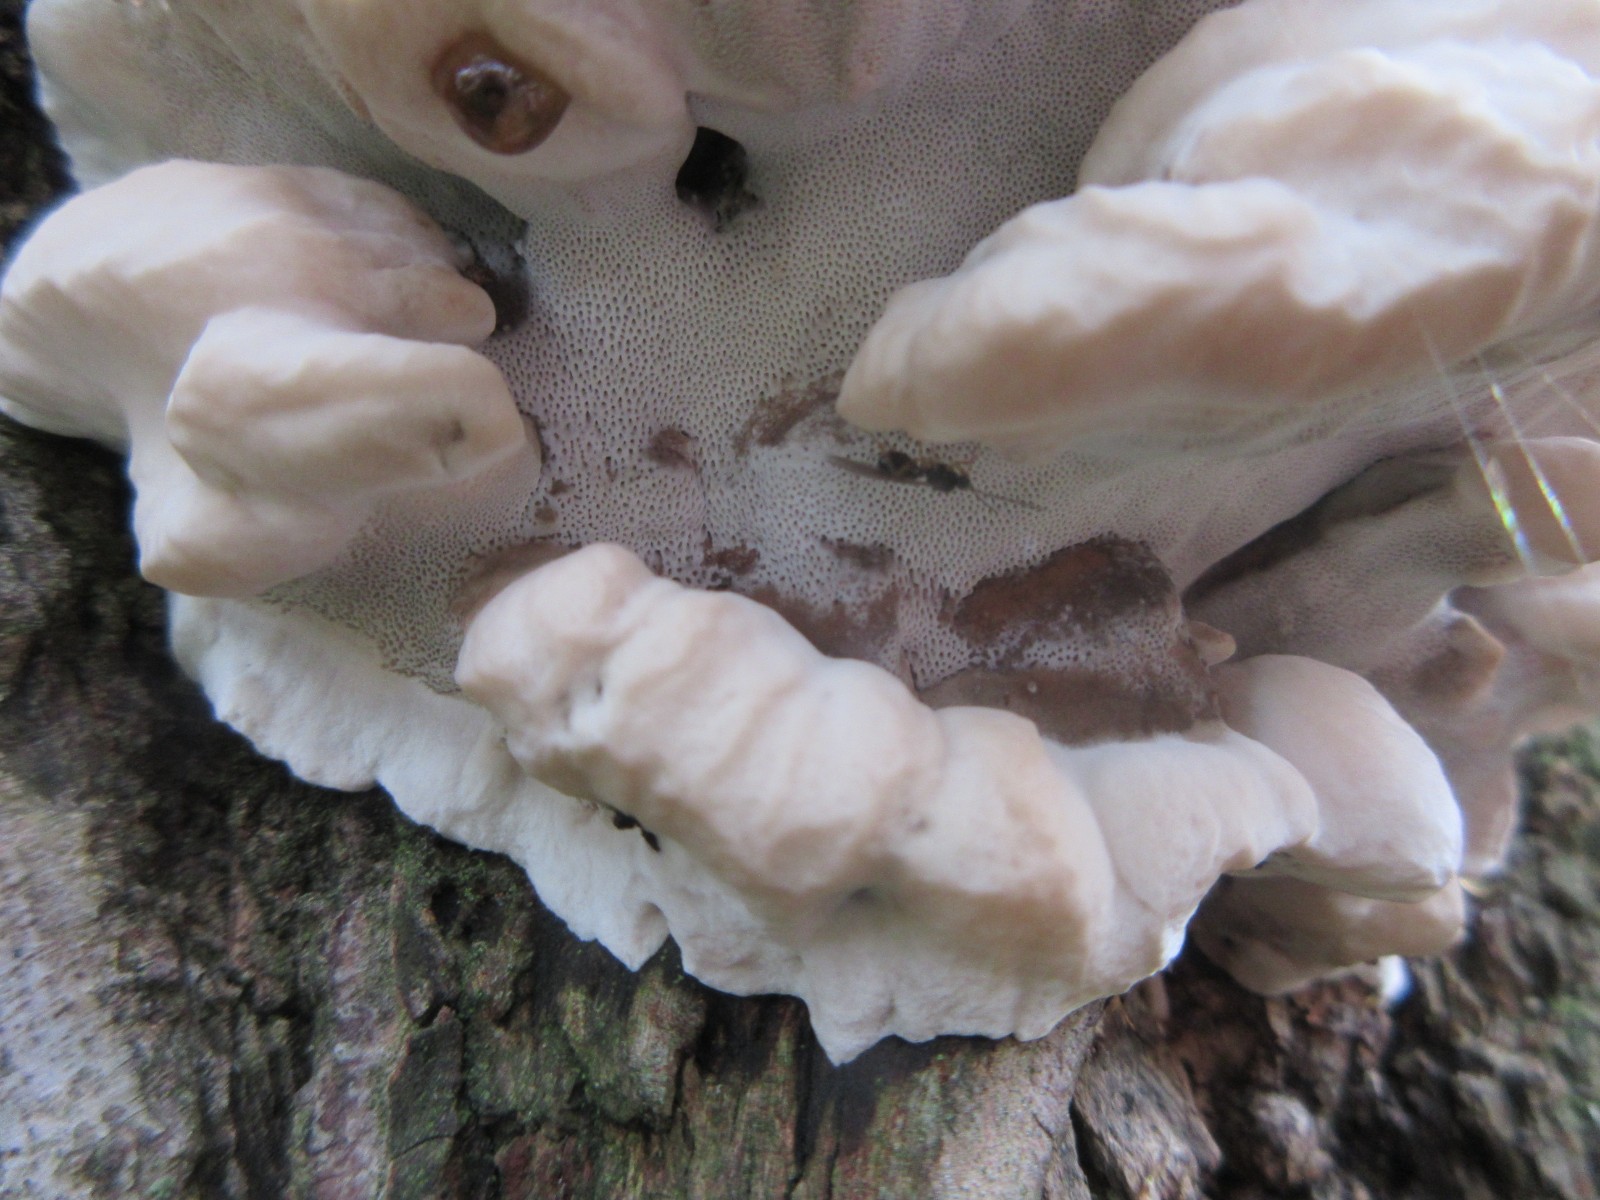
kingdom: Fungi
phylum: Basidiomycota
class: Agaricomycetes
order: Polyporales
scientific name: Polyporales
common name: poresvampordenen
